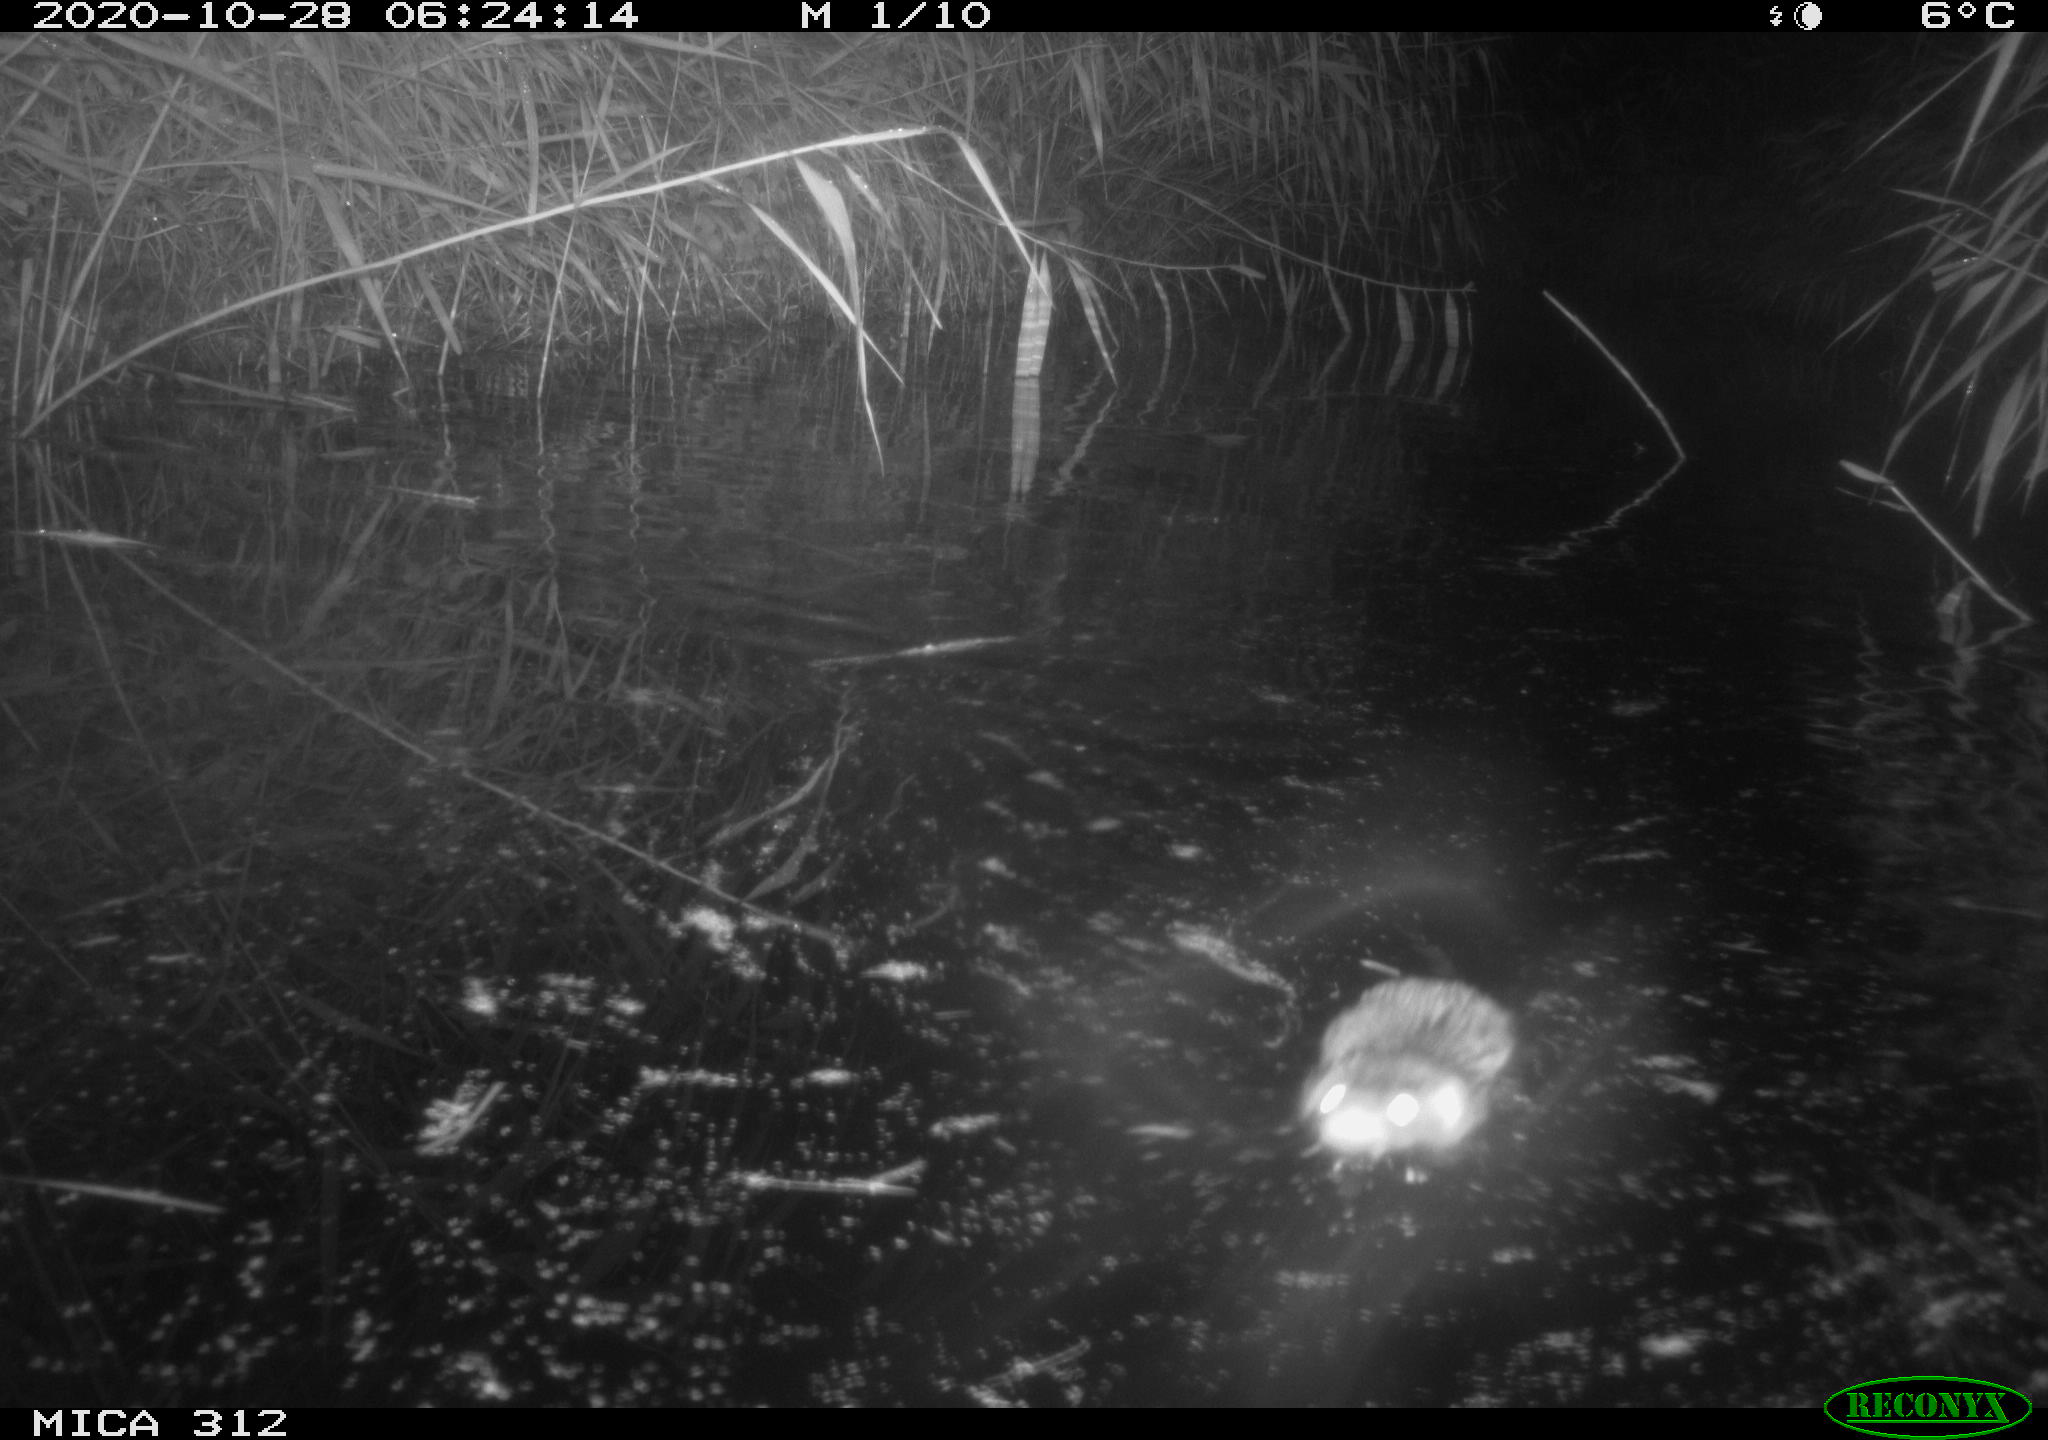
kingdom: Animalia
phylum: Chordata
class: Mammalia
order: Rodentia
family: Muridae
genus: Rattus
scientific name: Rattus norvegicus
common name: Brown rat
